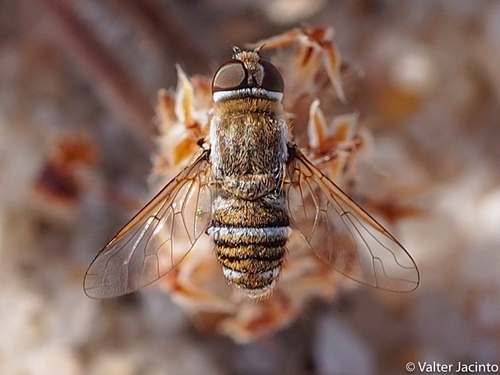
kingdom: Animalia
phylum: Arthropoda
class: Insecta
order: Diptera
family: Bombyliidae
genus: Exhyalanthrax
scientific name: Exhyalanthrax muscarius
